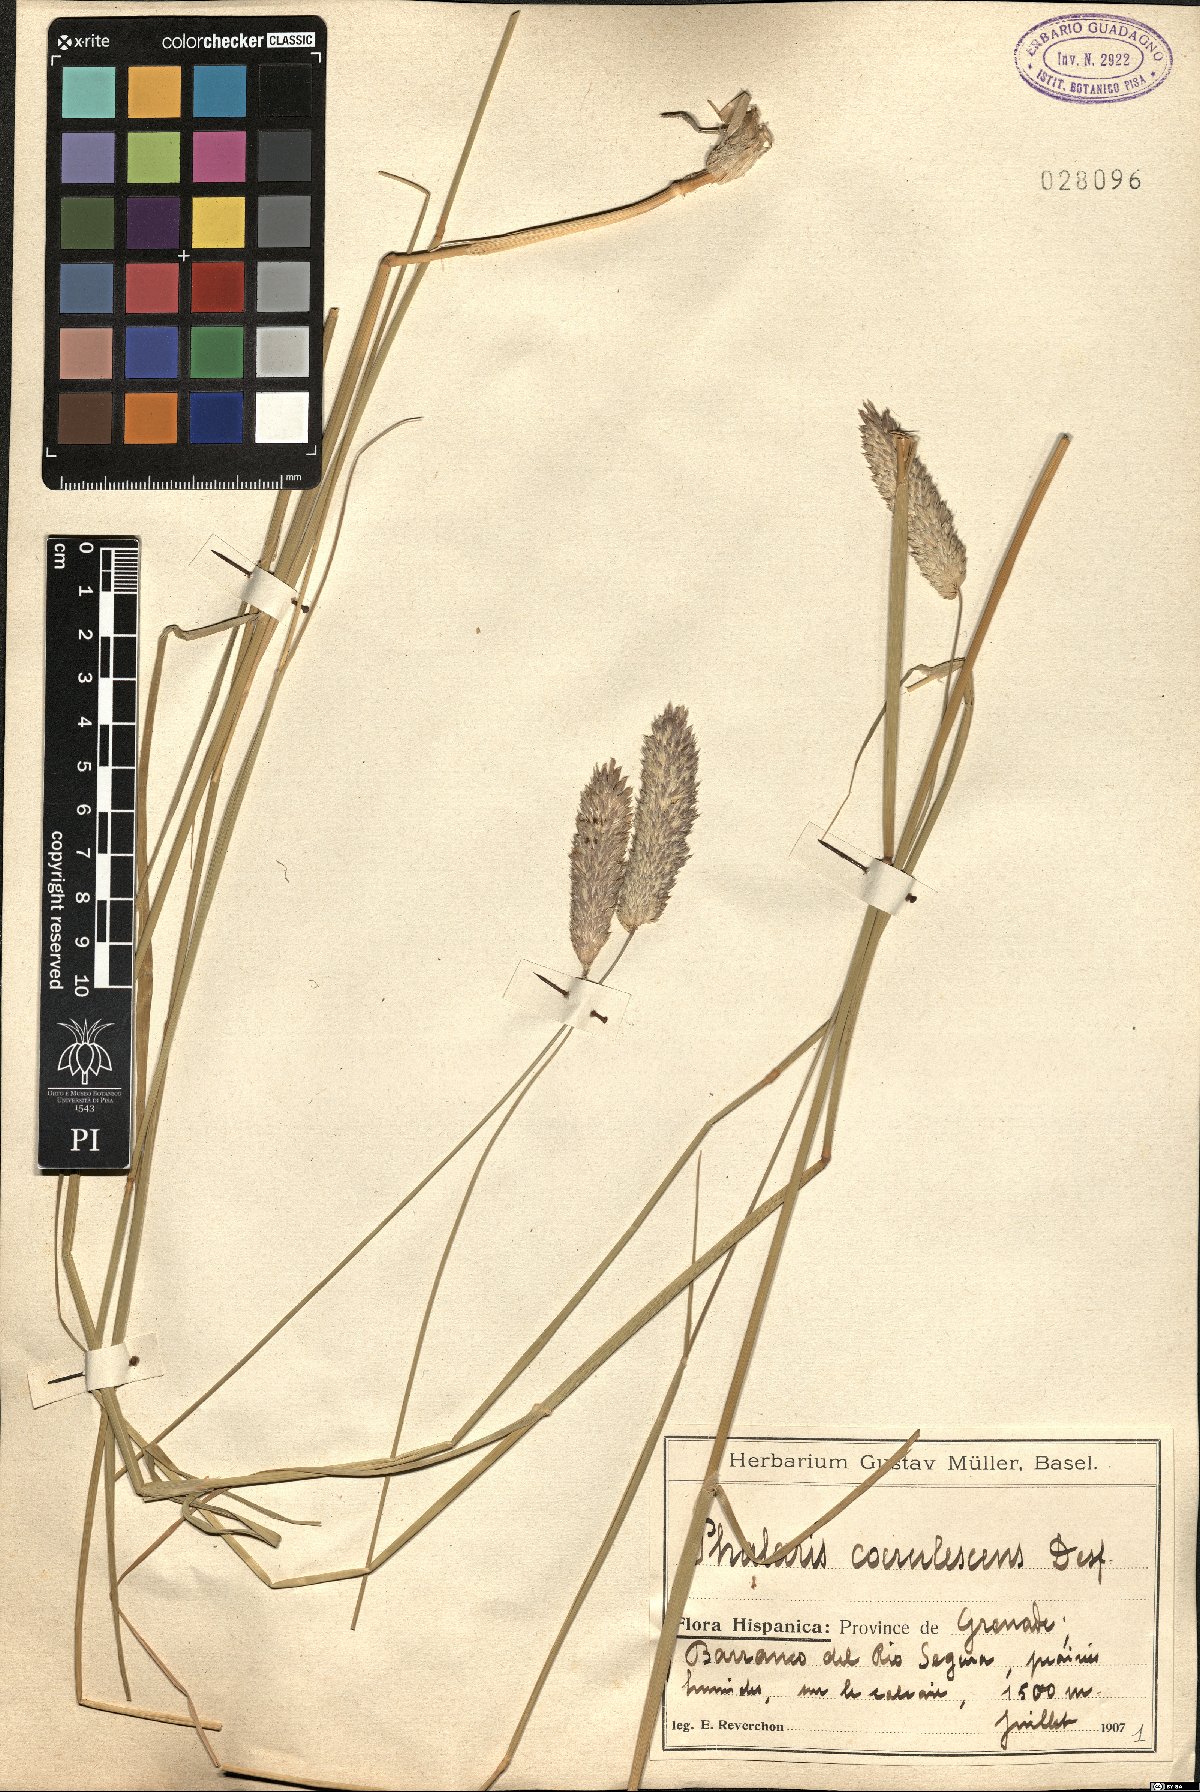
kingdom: Plantae
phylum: Tracheophyta
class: Liliopsida
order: Poales
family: Poaceae
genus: Phalaris
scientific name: Phalaris coerulescens
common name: Sunolgrass
